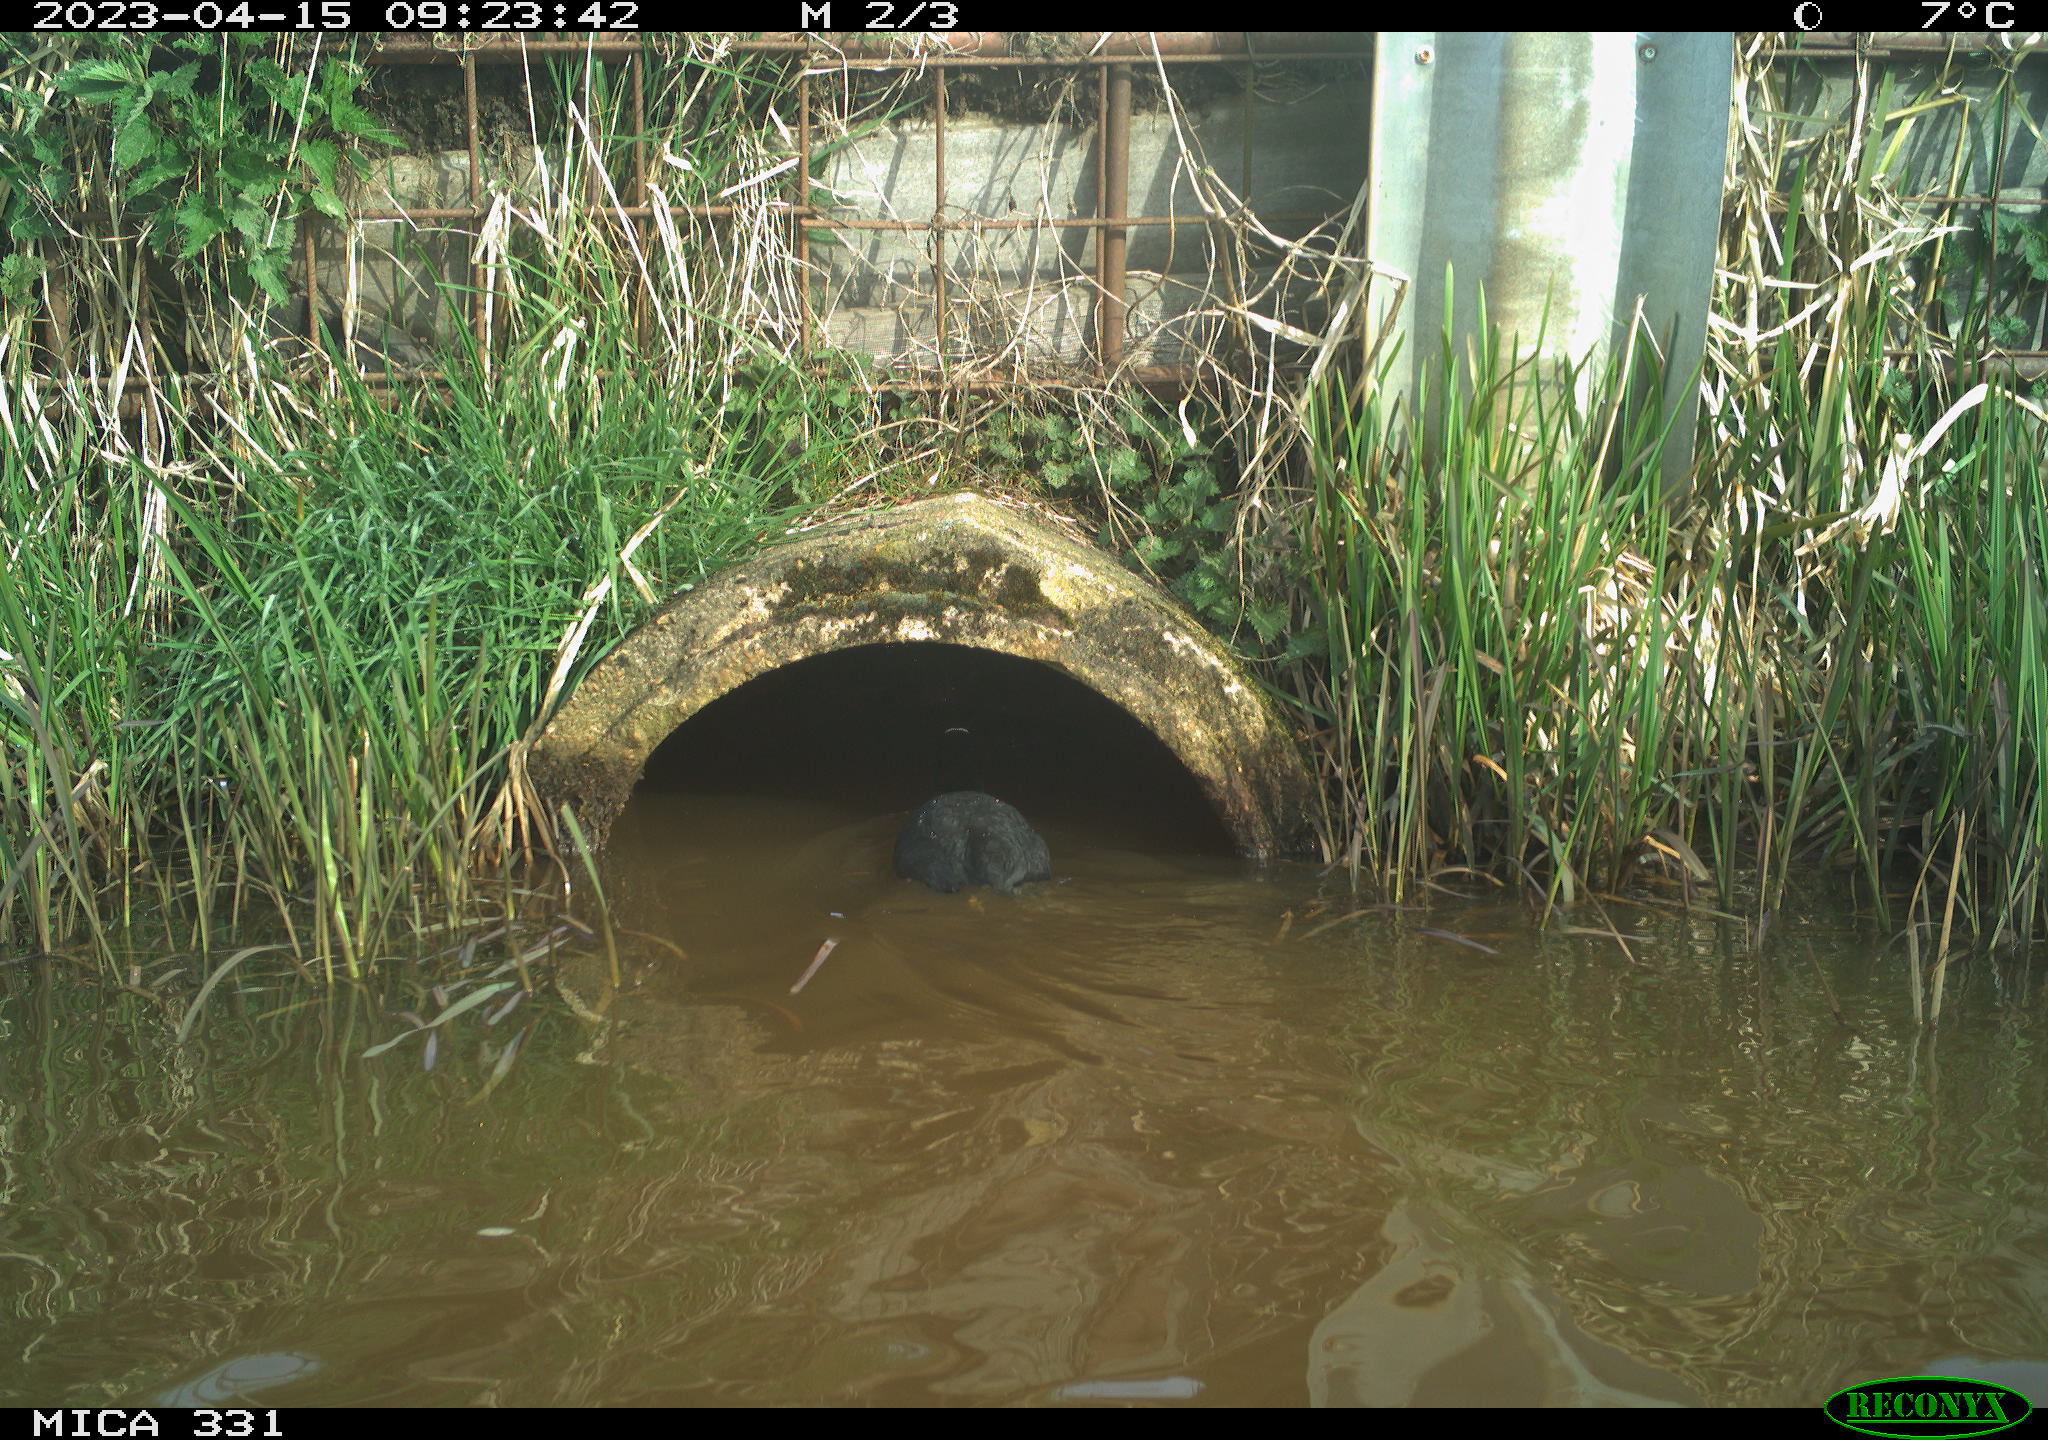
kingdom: Animalia
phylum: Chordata
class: Aves
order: Gruiformes
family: Rallidae
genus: Fulica
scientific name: Fulica atra
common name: Eurasian coot
